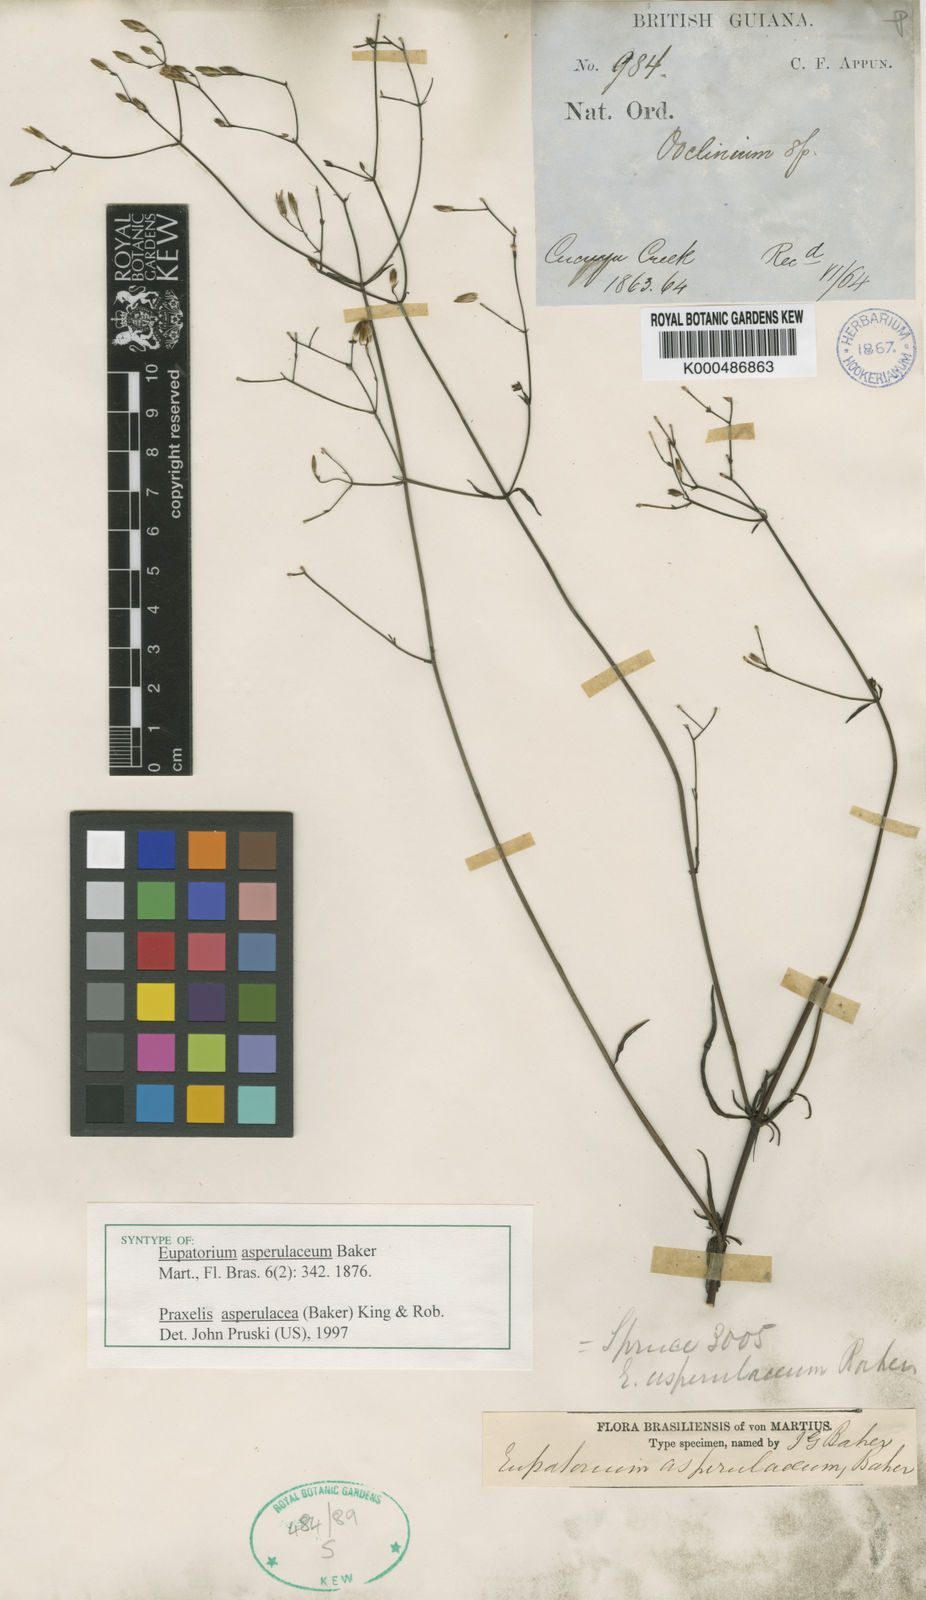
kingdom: Plantae
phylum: Tracheophyta
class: Magnoliopsida
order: Asterales
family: Asteraceae
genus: Praxelis
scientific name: Praxelis asperulacea
